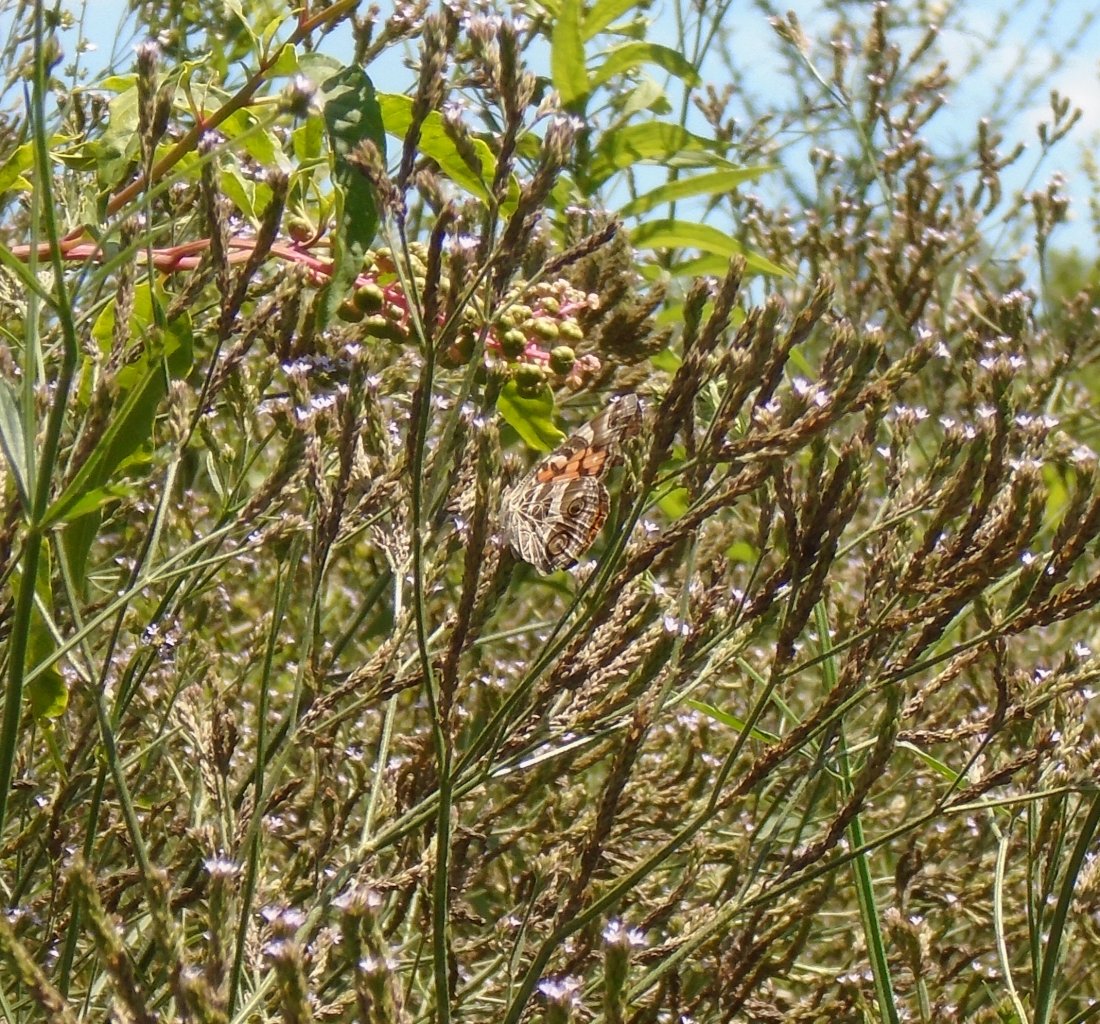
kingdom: Animalia
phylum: Arthropoda
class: Insecta
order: Lepidoptera
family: Nymphalidae
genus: Vanessa
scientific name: Vanessa virginiensis
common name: American Lady
